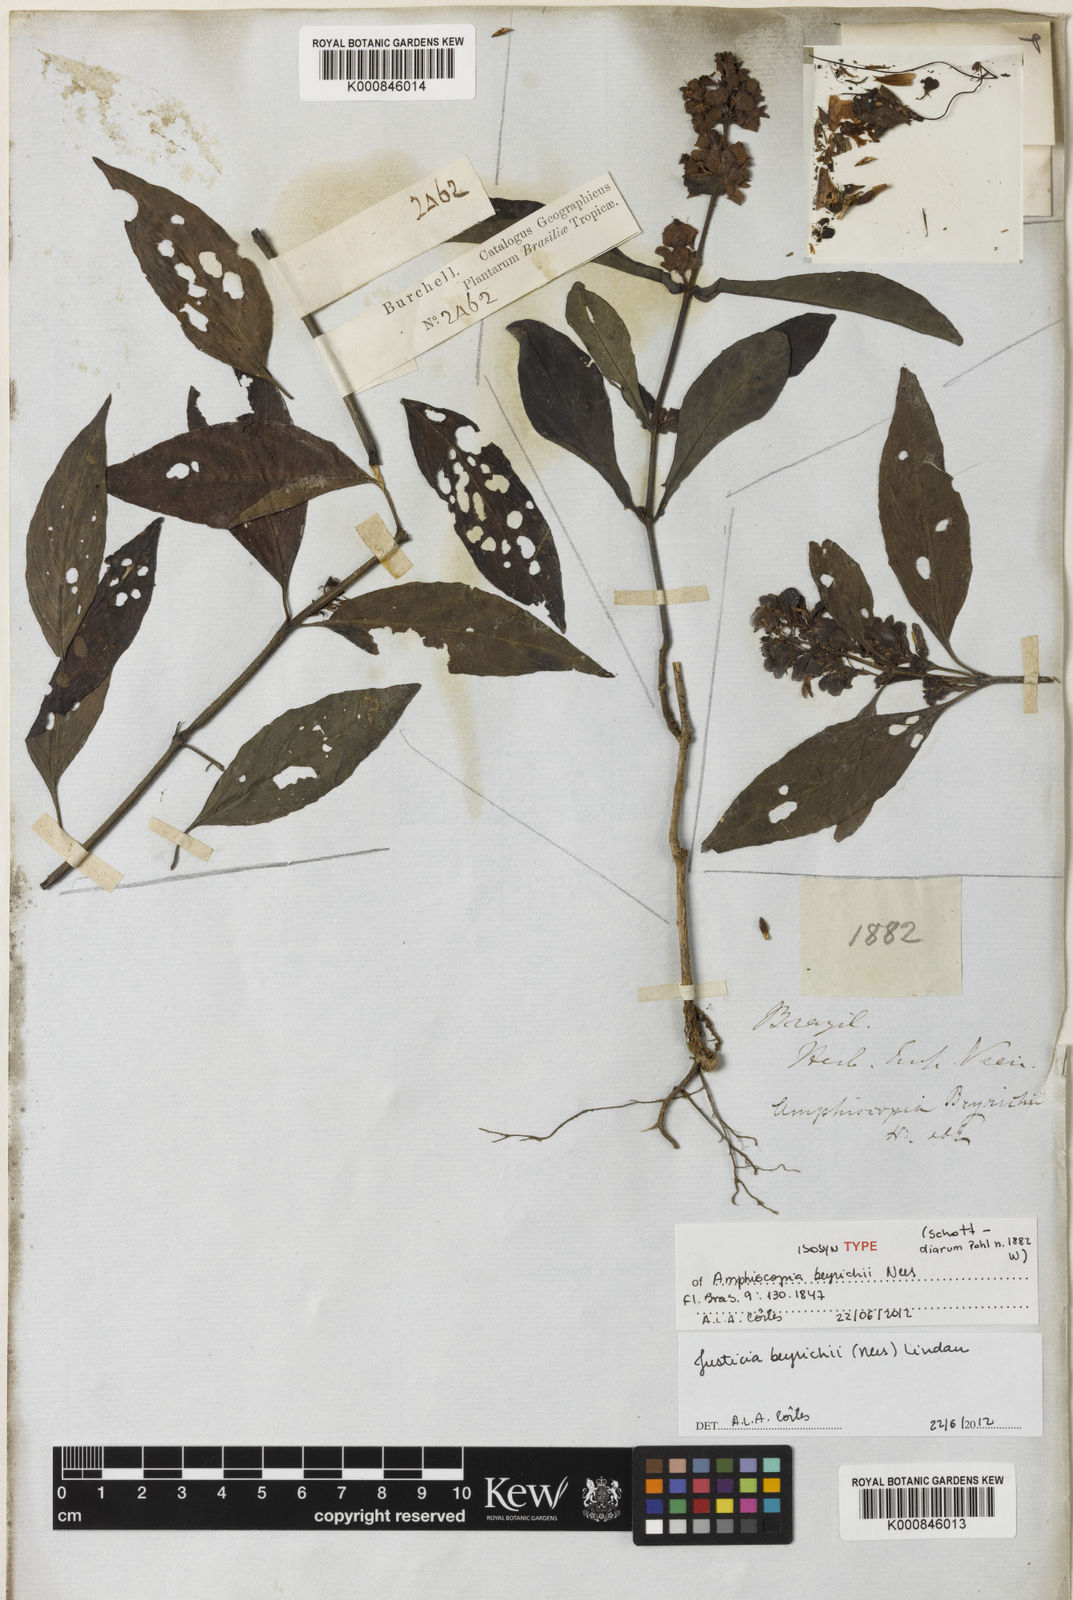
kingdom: Plantae
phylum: Tracheophyta
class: Magnoliopsida
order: Lamiales
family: Acanthaceae
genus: Dianthera
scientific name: Dianthera brasiliensis
